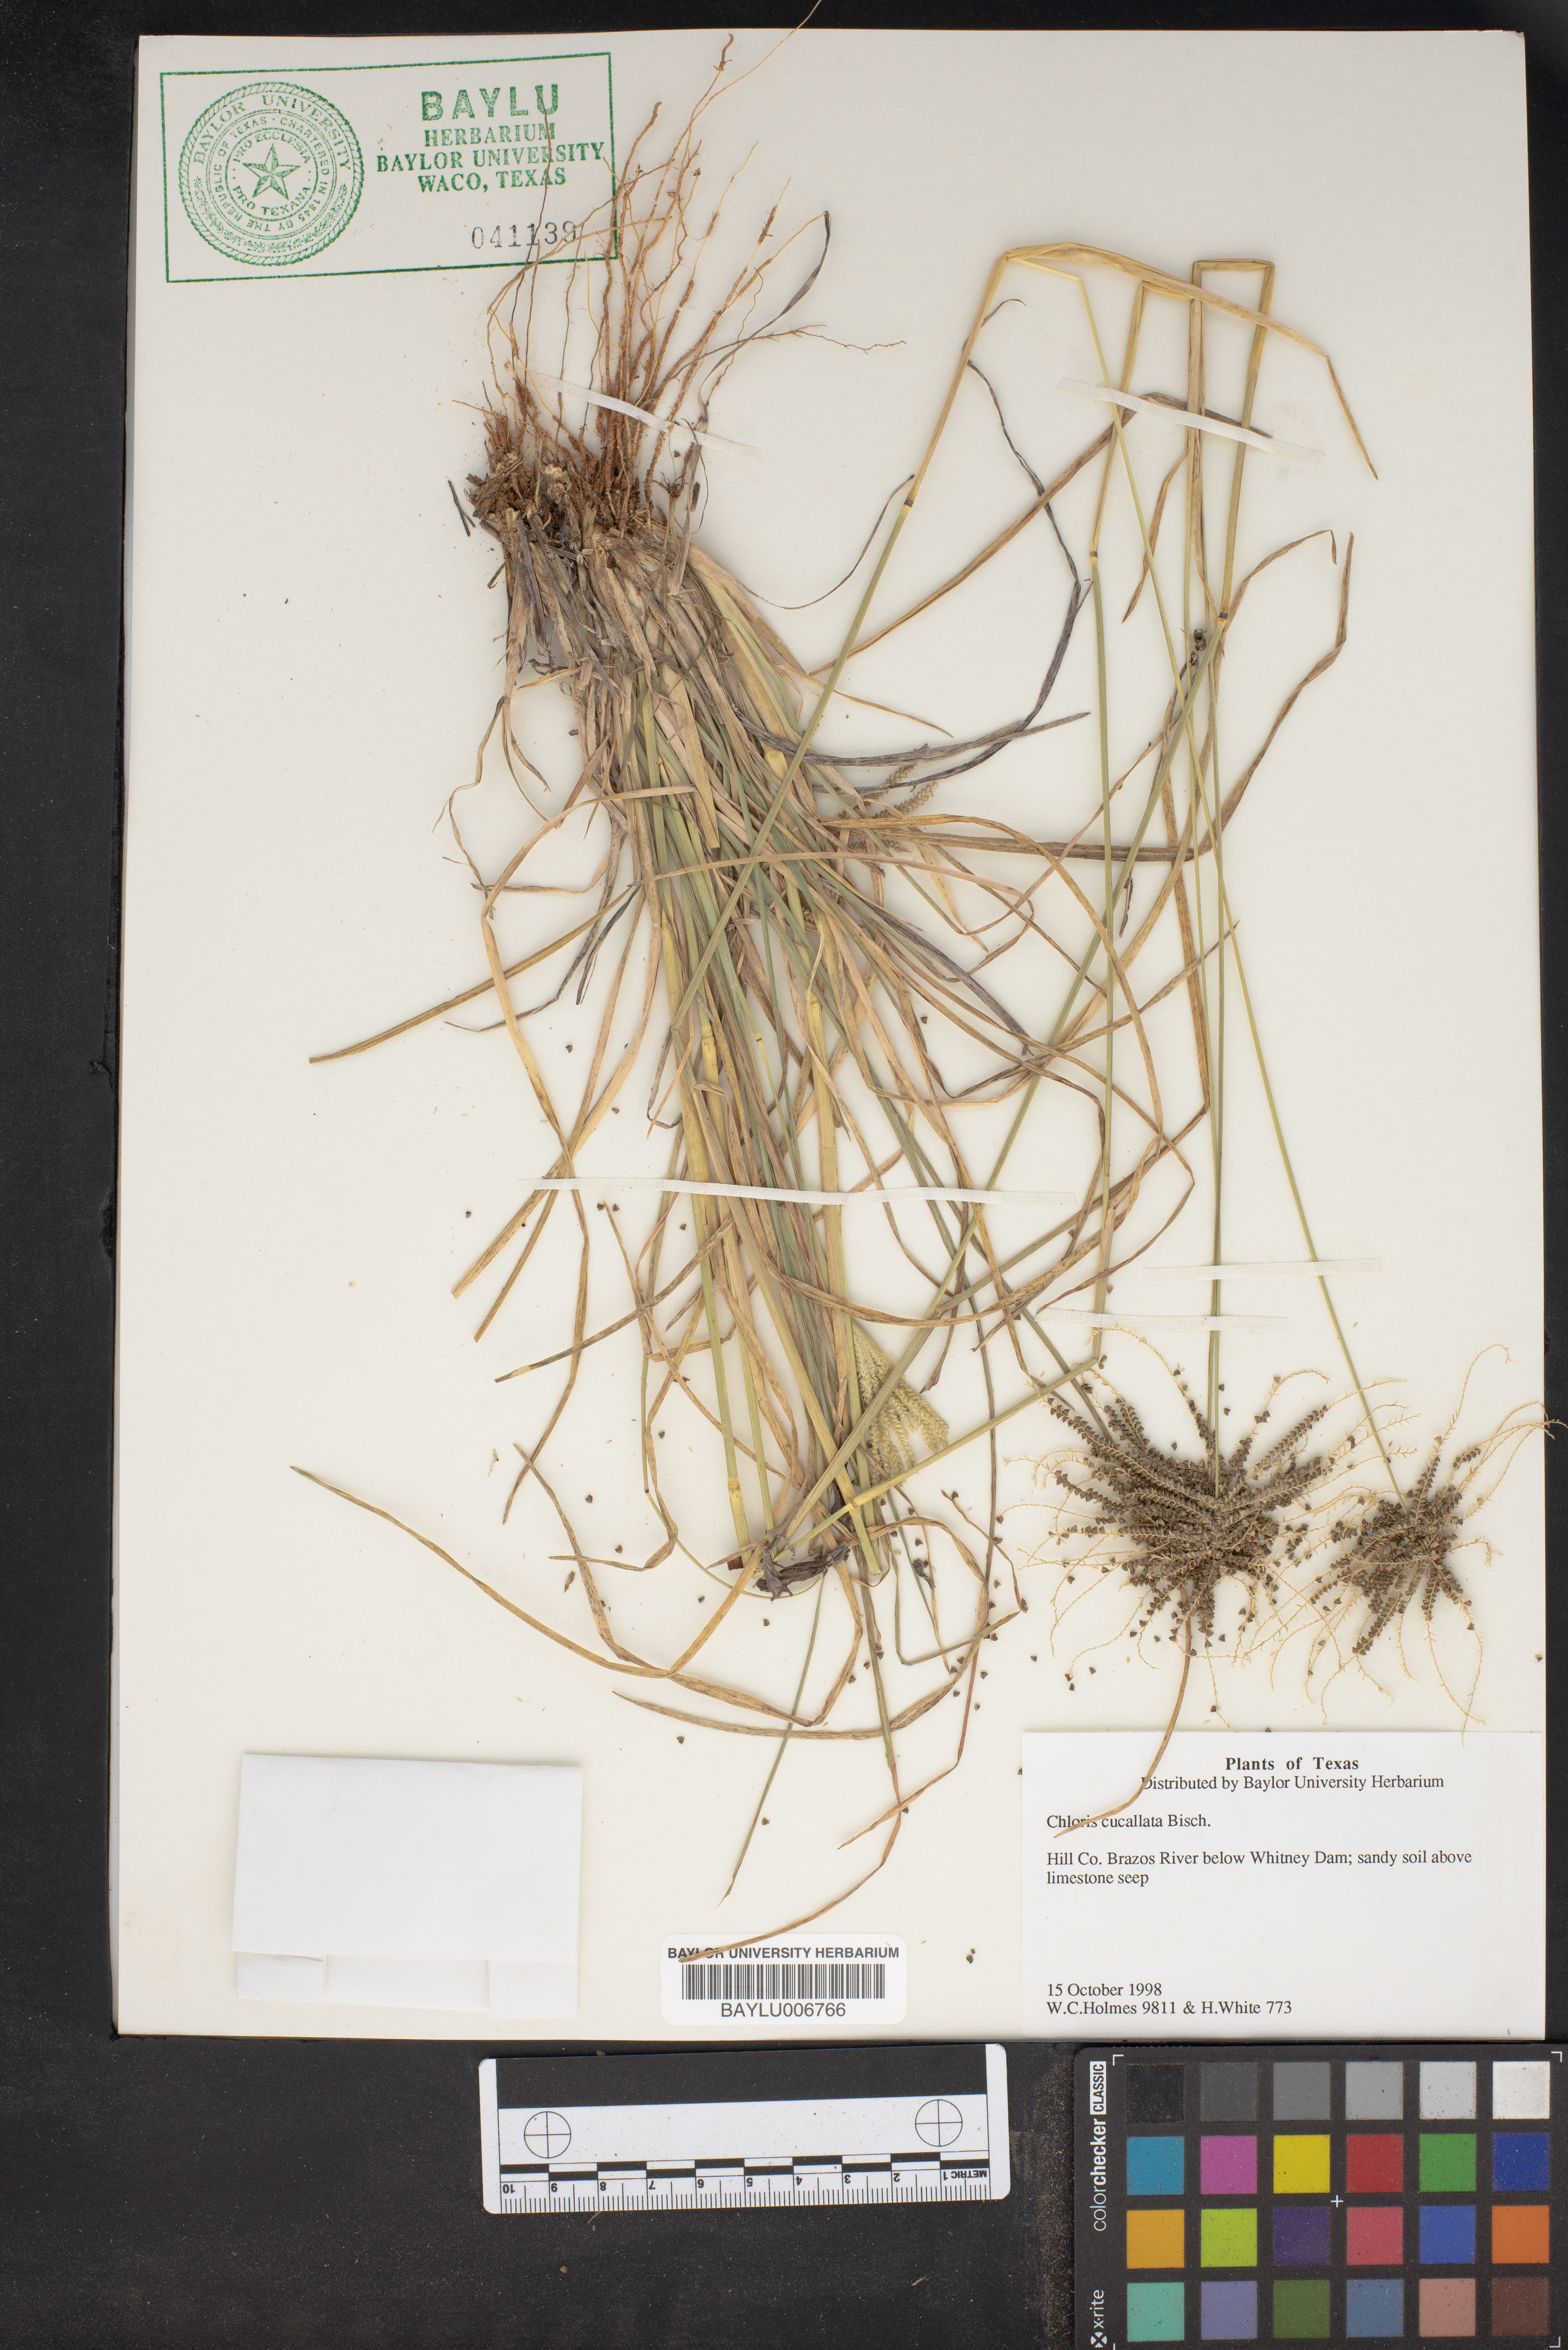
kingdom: Plantae
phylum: Tracheophyta
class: Liliopsida
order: Poales
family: Poaceae
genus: Chloris
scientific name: Chloris cucullata
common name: Hooded windmill grass
